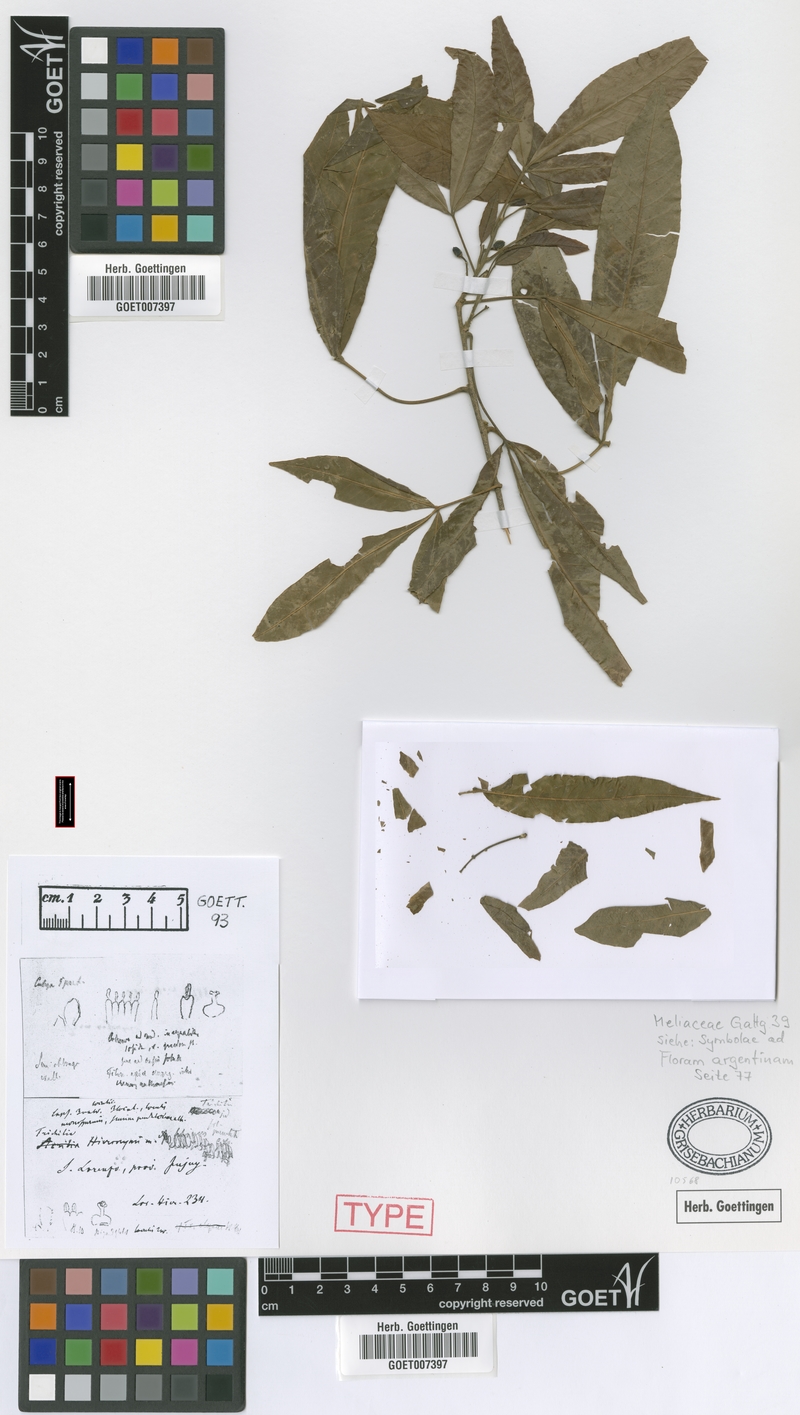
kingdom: Plantae
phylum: Tracheophyta
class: Magnoliopsida
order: Sapindales
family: Meliaceae
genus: Trichilia
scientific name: Trichilia claussenii
